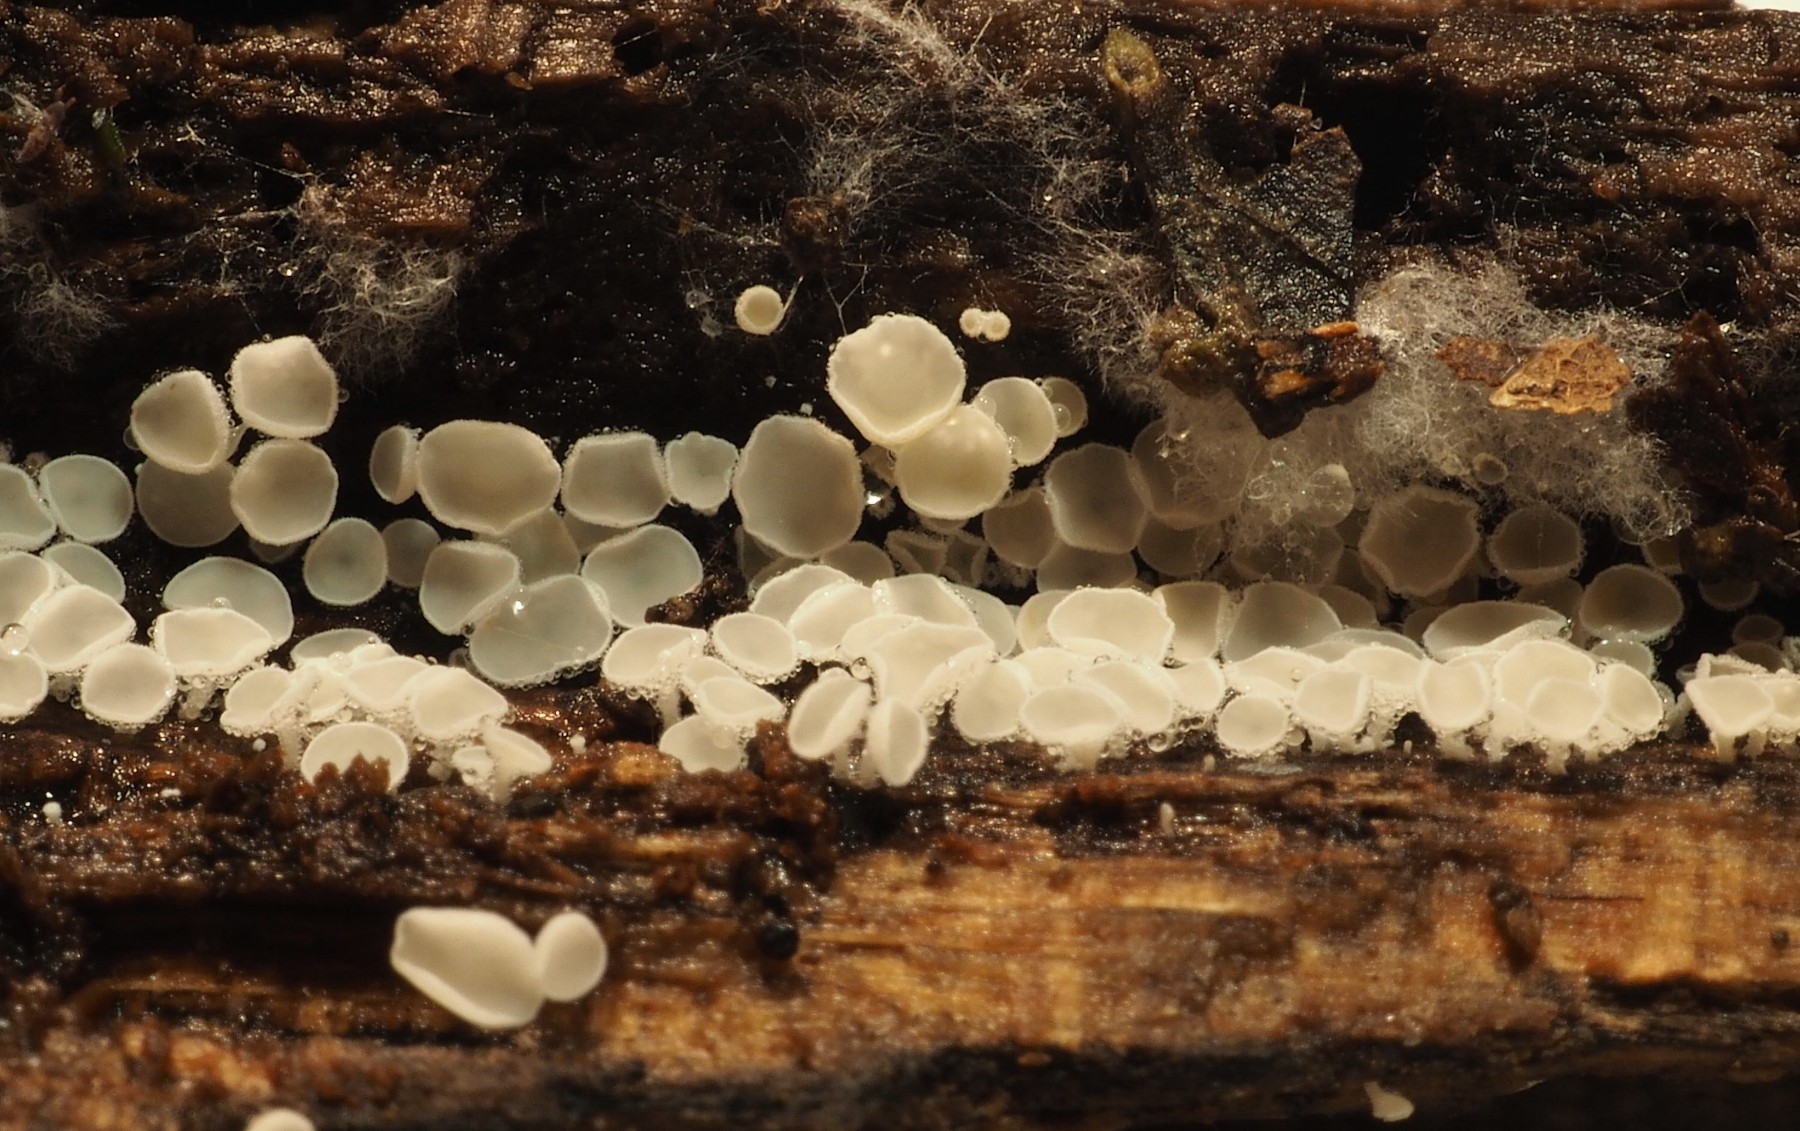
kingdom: Fungi
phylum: Ascomycota
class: Leotiomycetes
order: Helotiales
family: Lachnaceae
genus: Lachnum
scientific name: Lachnum impudicum
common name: vinter-frynseskive
